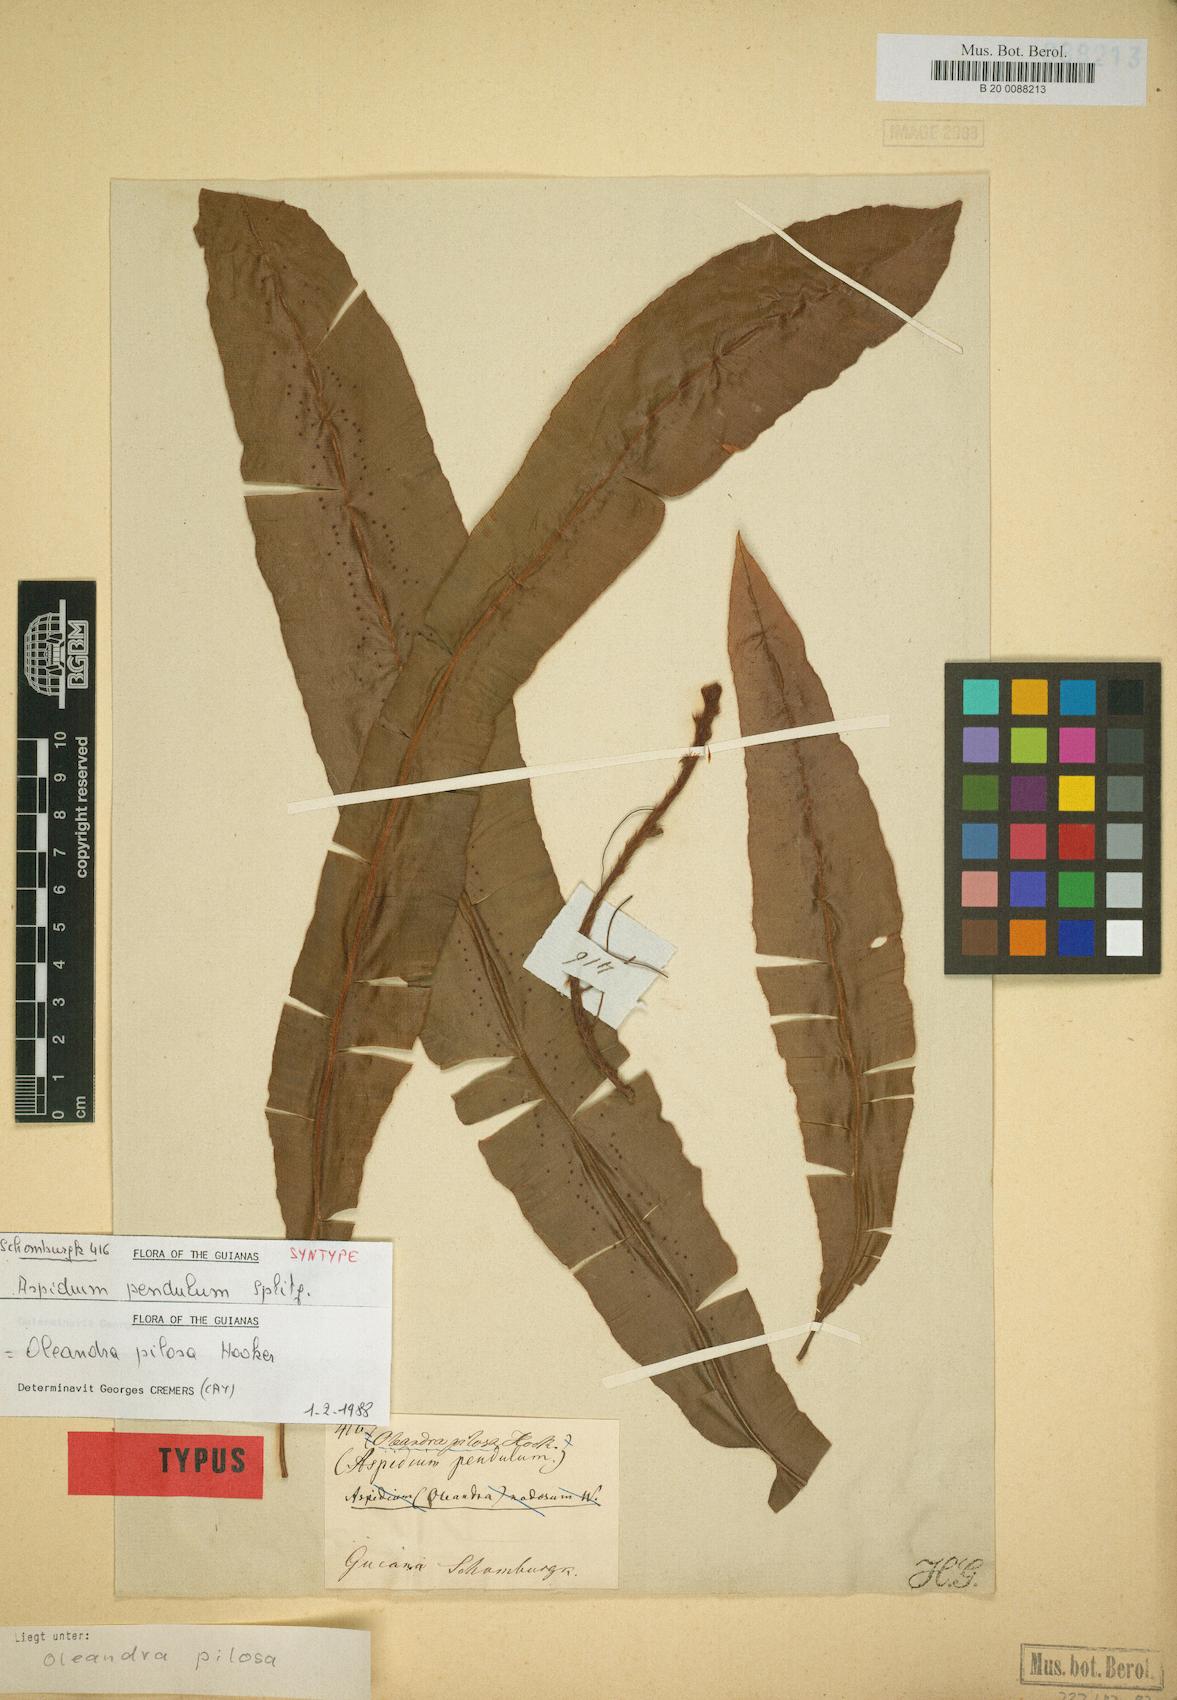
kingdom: Plantae
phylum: Tracheophyta
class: Polypodiopsida
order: Polypodiales
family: Oleandraceae
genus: Oleandra
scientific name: Oleandra pilosa
